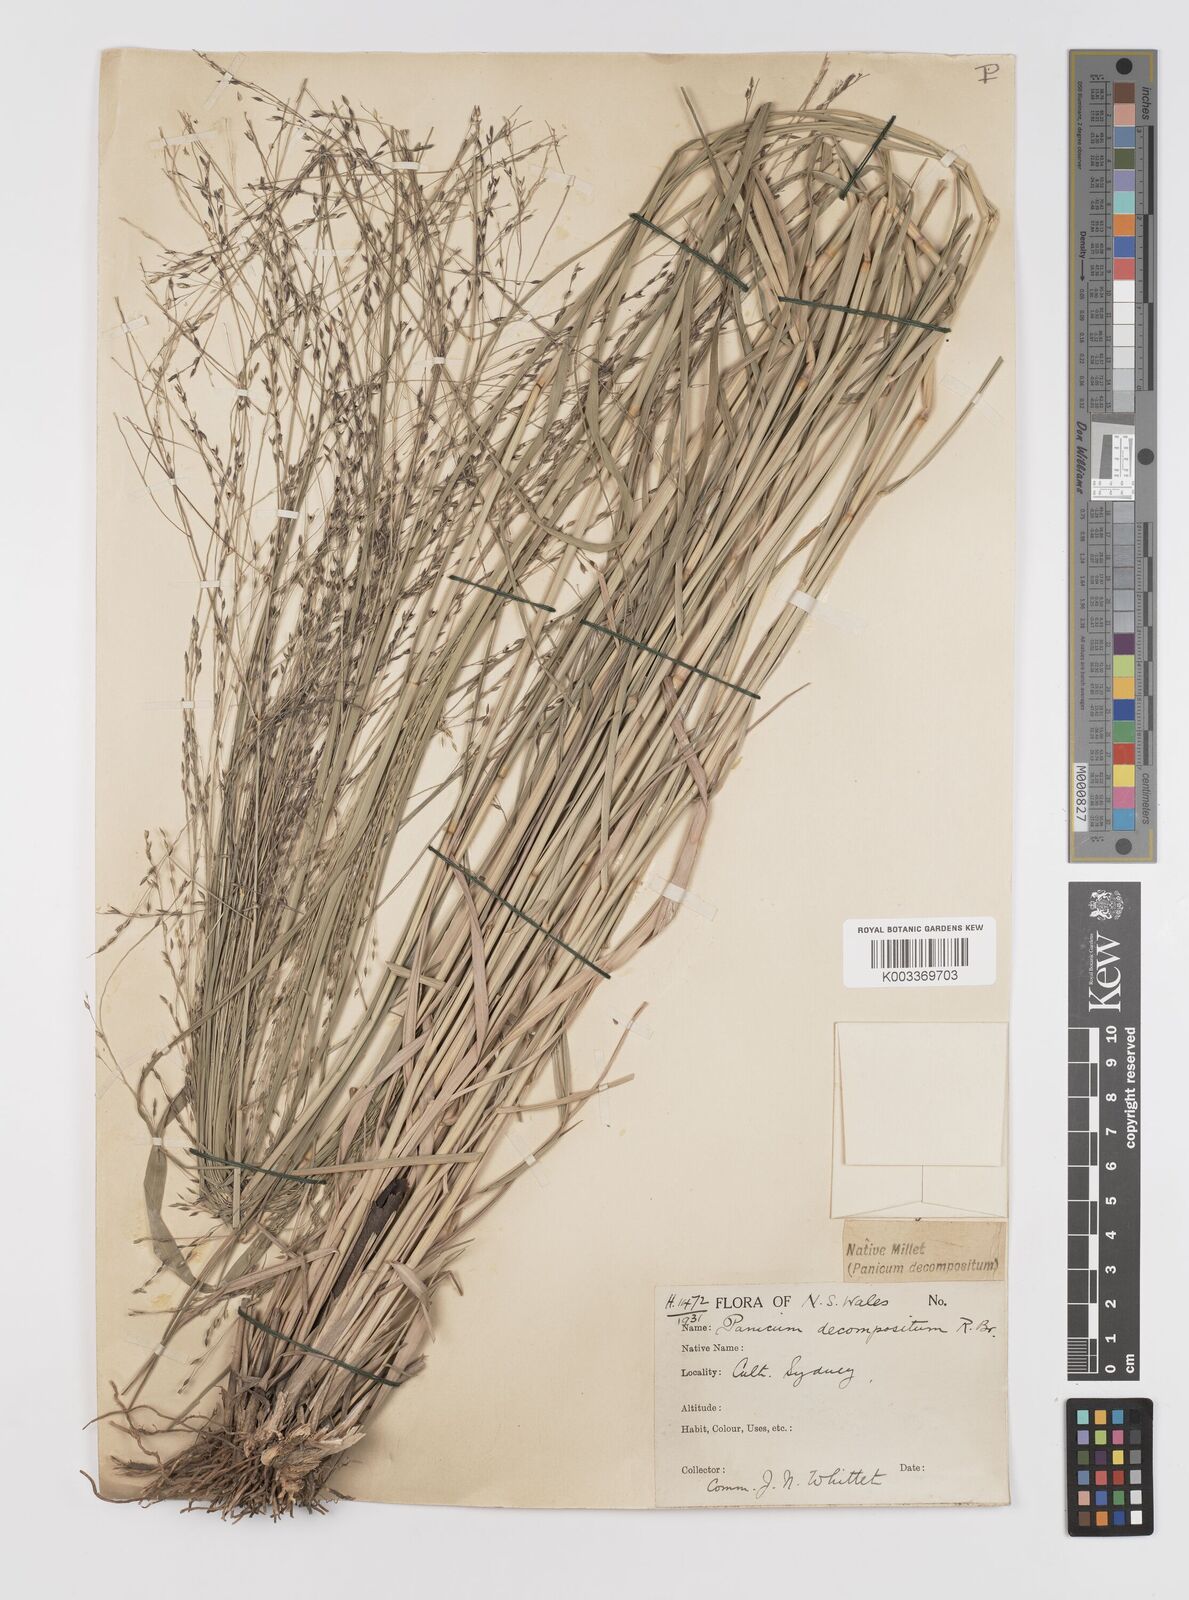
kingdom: Plantae
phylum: Tracheophyta
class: Liliopsida
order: Poales
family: Poaceae
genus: Panicum
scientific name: Panicum decompositum
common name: Australian millet
